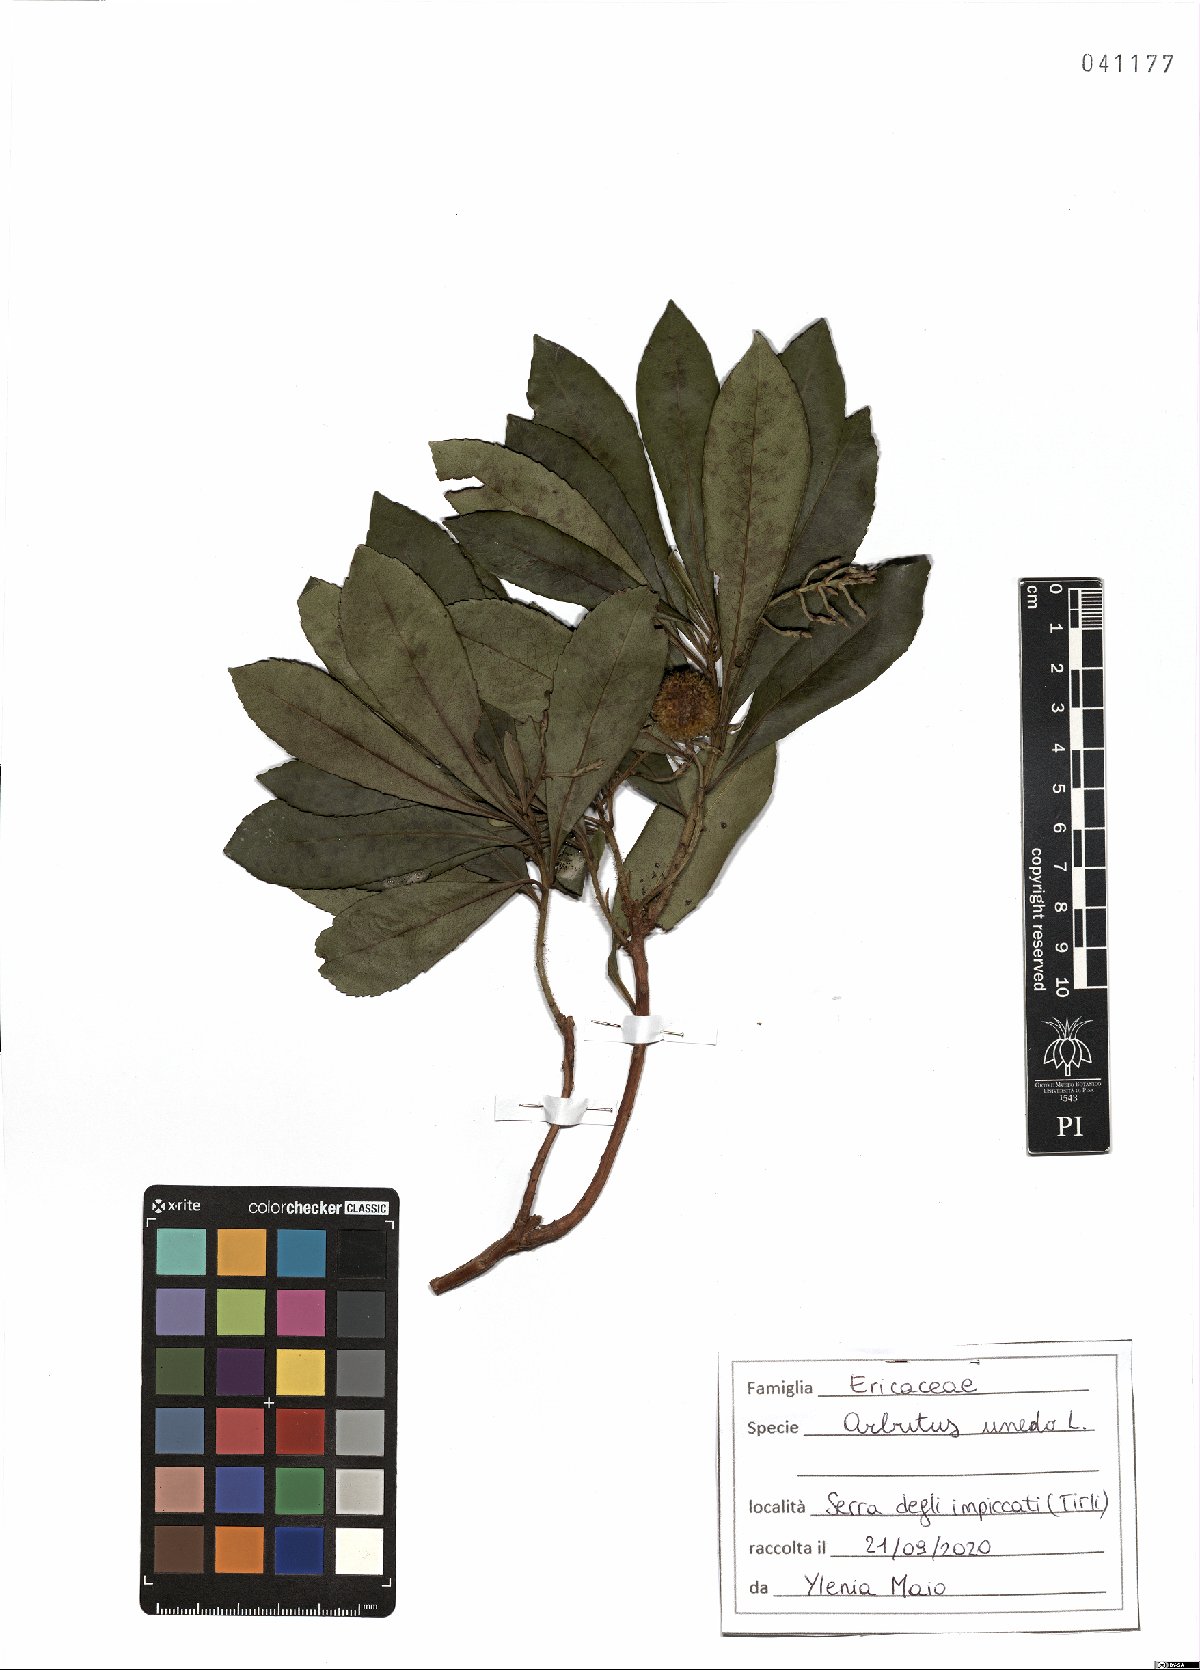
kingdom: Plantae
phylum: Tracheophyta
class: Magnoliopsida
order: Ericales
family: Ericaceae
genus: Arbutus
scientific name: Arbutus unedo
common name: Strawberry-tree
